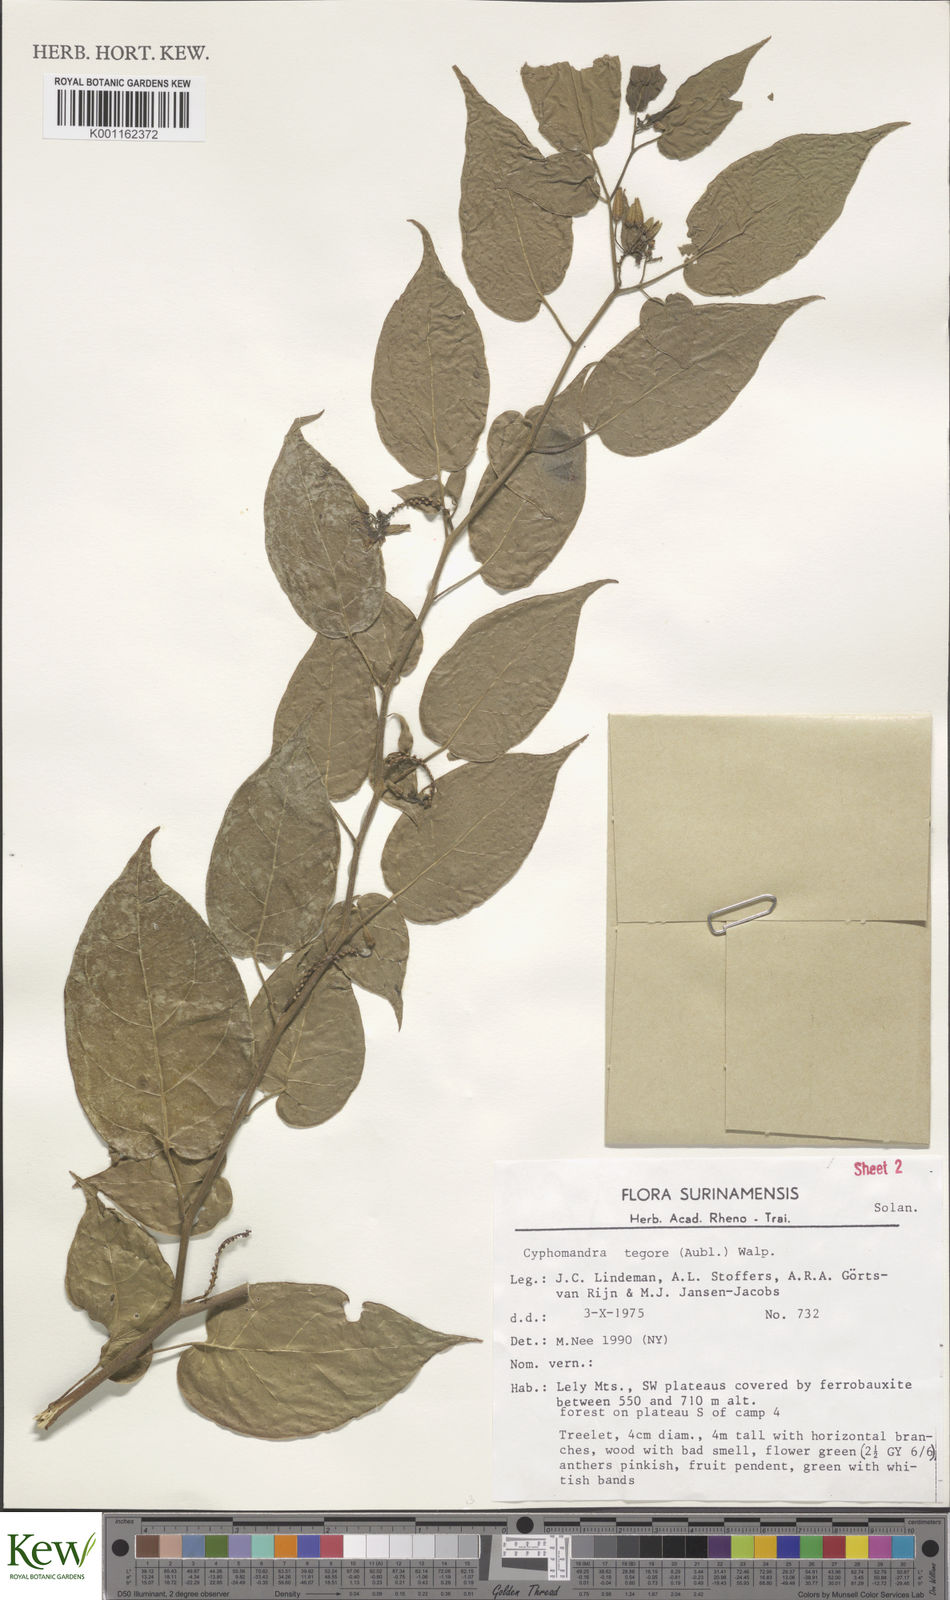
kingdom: Plantae
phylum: Tracheophyta
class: Magnoliopsida
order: Solanales
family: Solanaceae
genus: Solanum
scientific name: Solanum tegore
